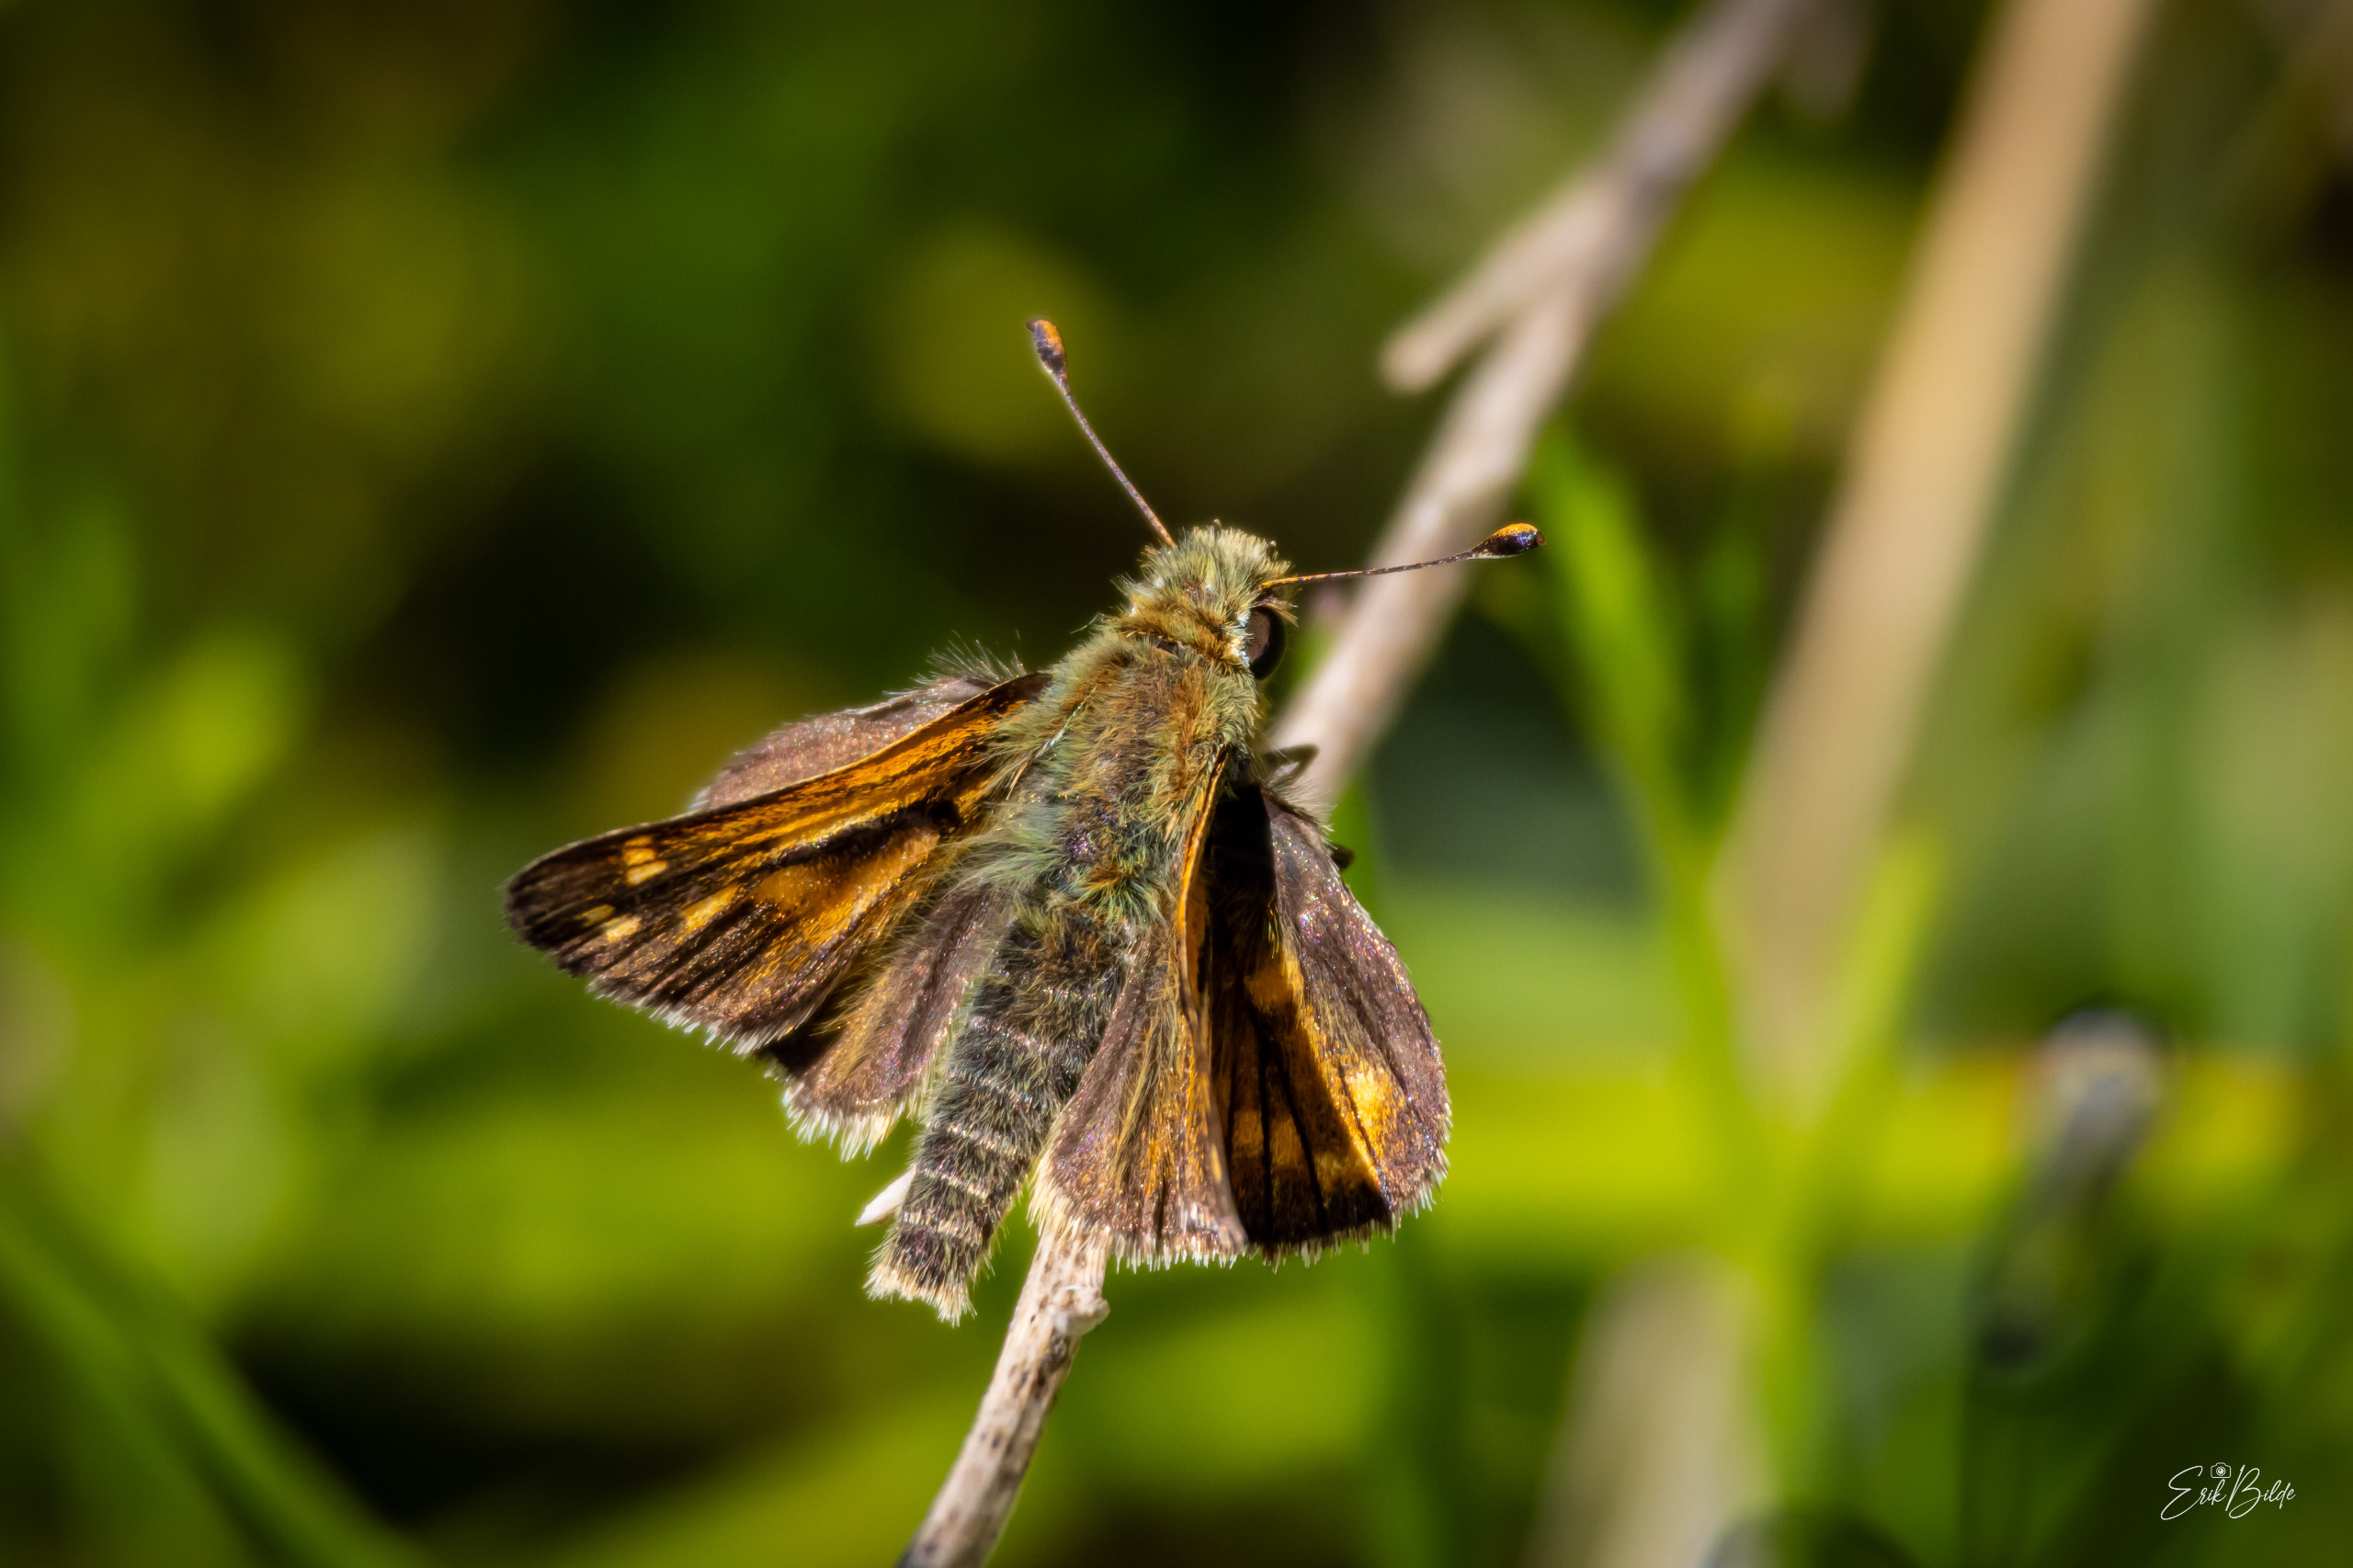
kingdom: Animalia
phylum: Arthropoda
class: Insecta
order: Lepidoptera
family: Hesperiidae
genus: Hesperia
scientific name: Hesperia comma
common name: Kommabredpande
